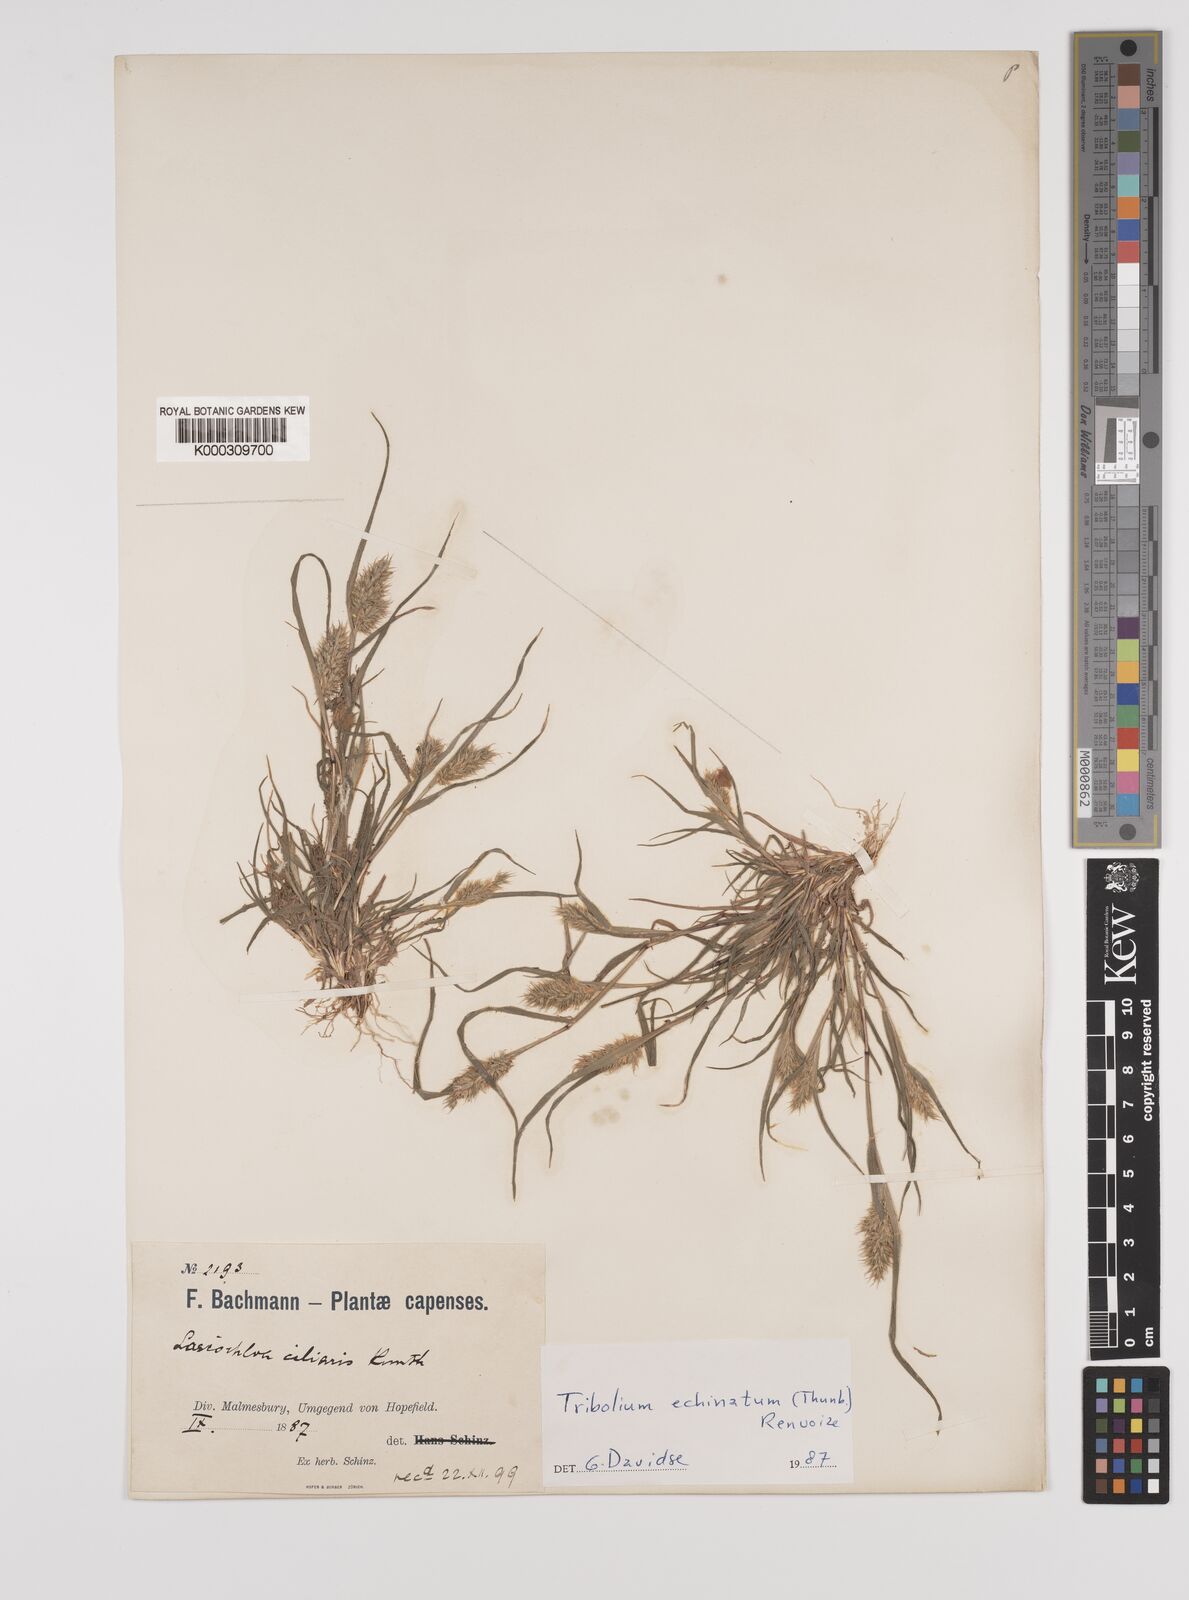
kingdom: Plantae
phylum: Tracheophyta
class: Liliopsida
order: Poales
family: Poaceae
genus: Tribolium
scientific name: Tribolium echinatum
